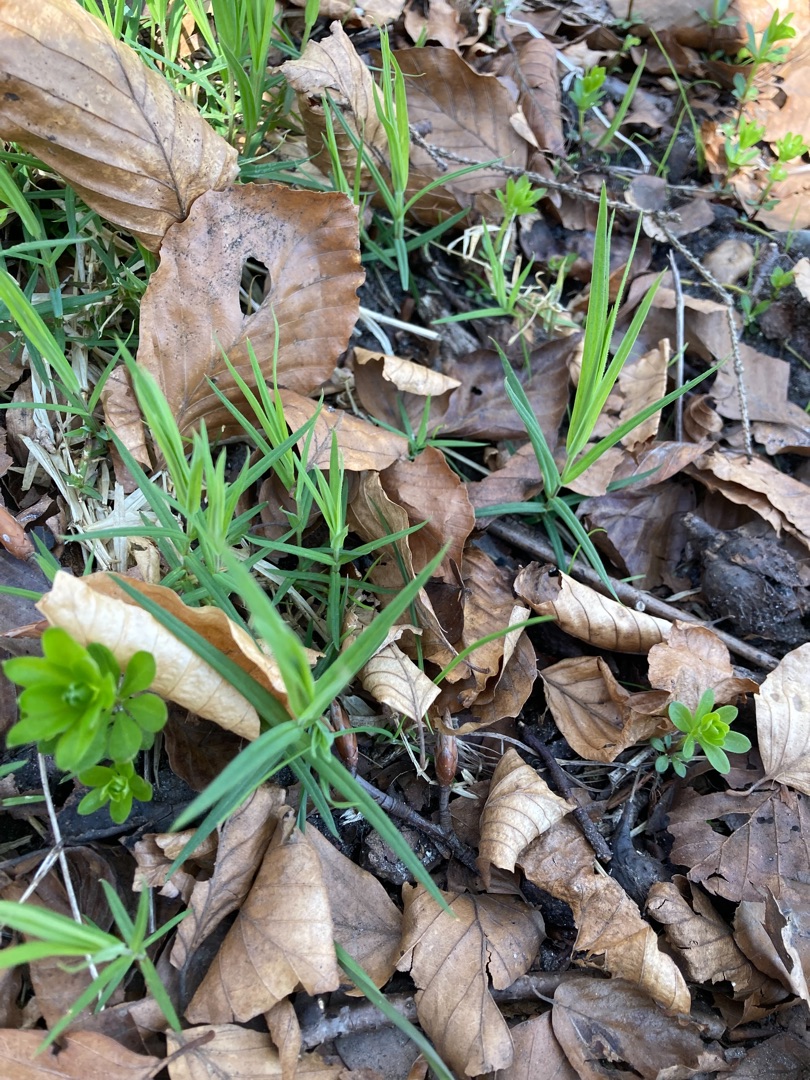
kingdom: Plantae
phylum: Tracheophyta
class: Magnoliopsida
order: Caryophyllales
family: Caryophyllaceae
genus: Rabelera
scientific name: Rabelera holostea
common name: Stor fladstjerne
